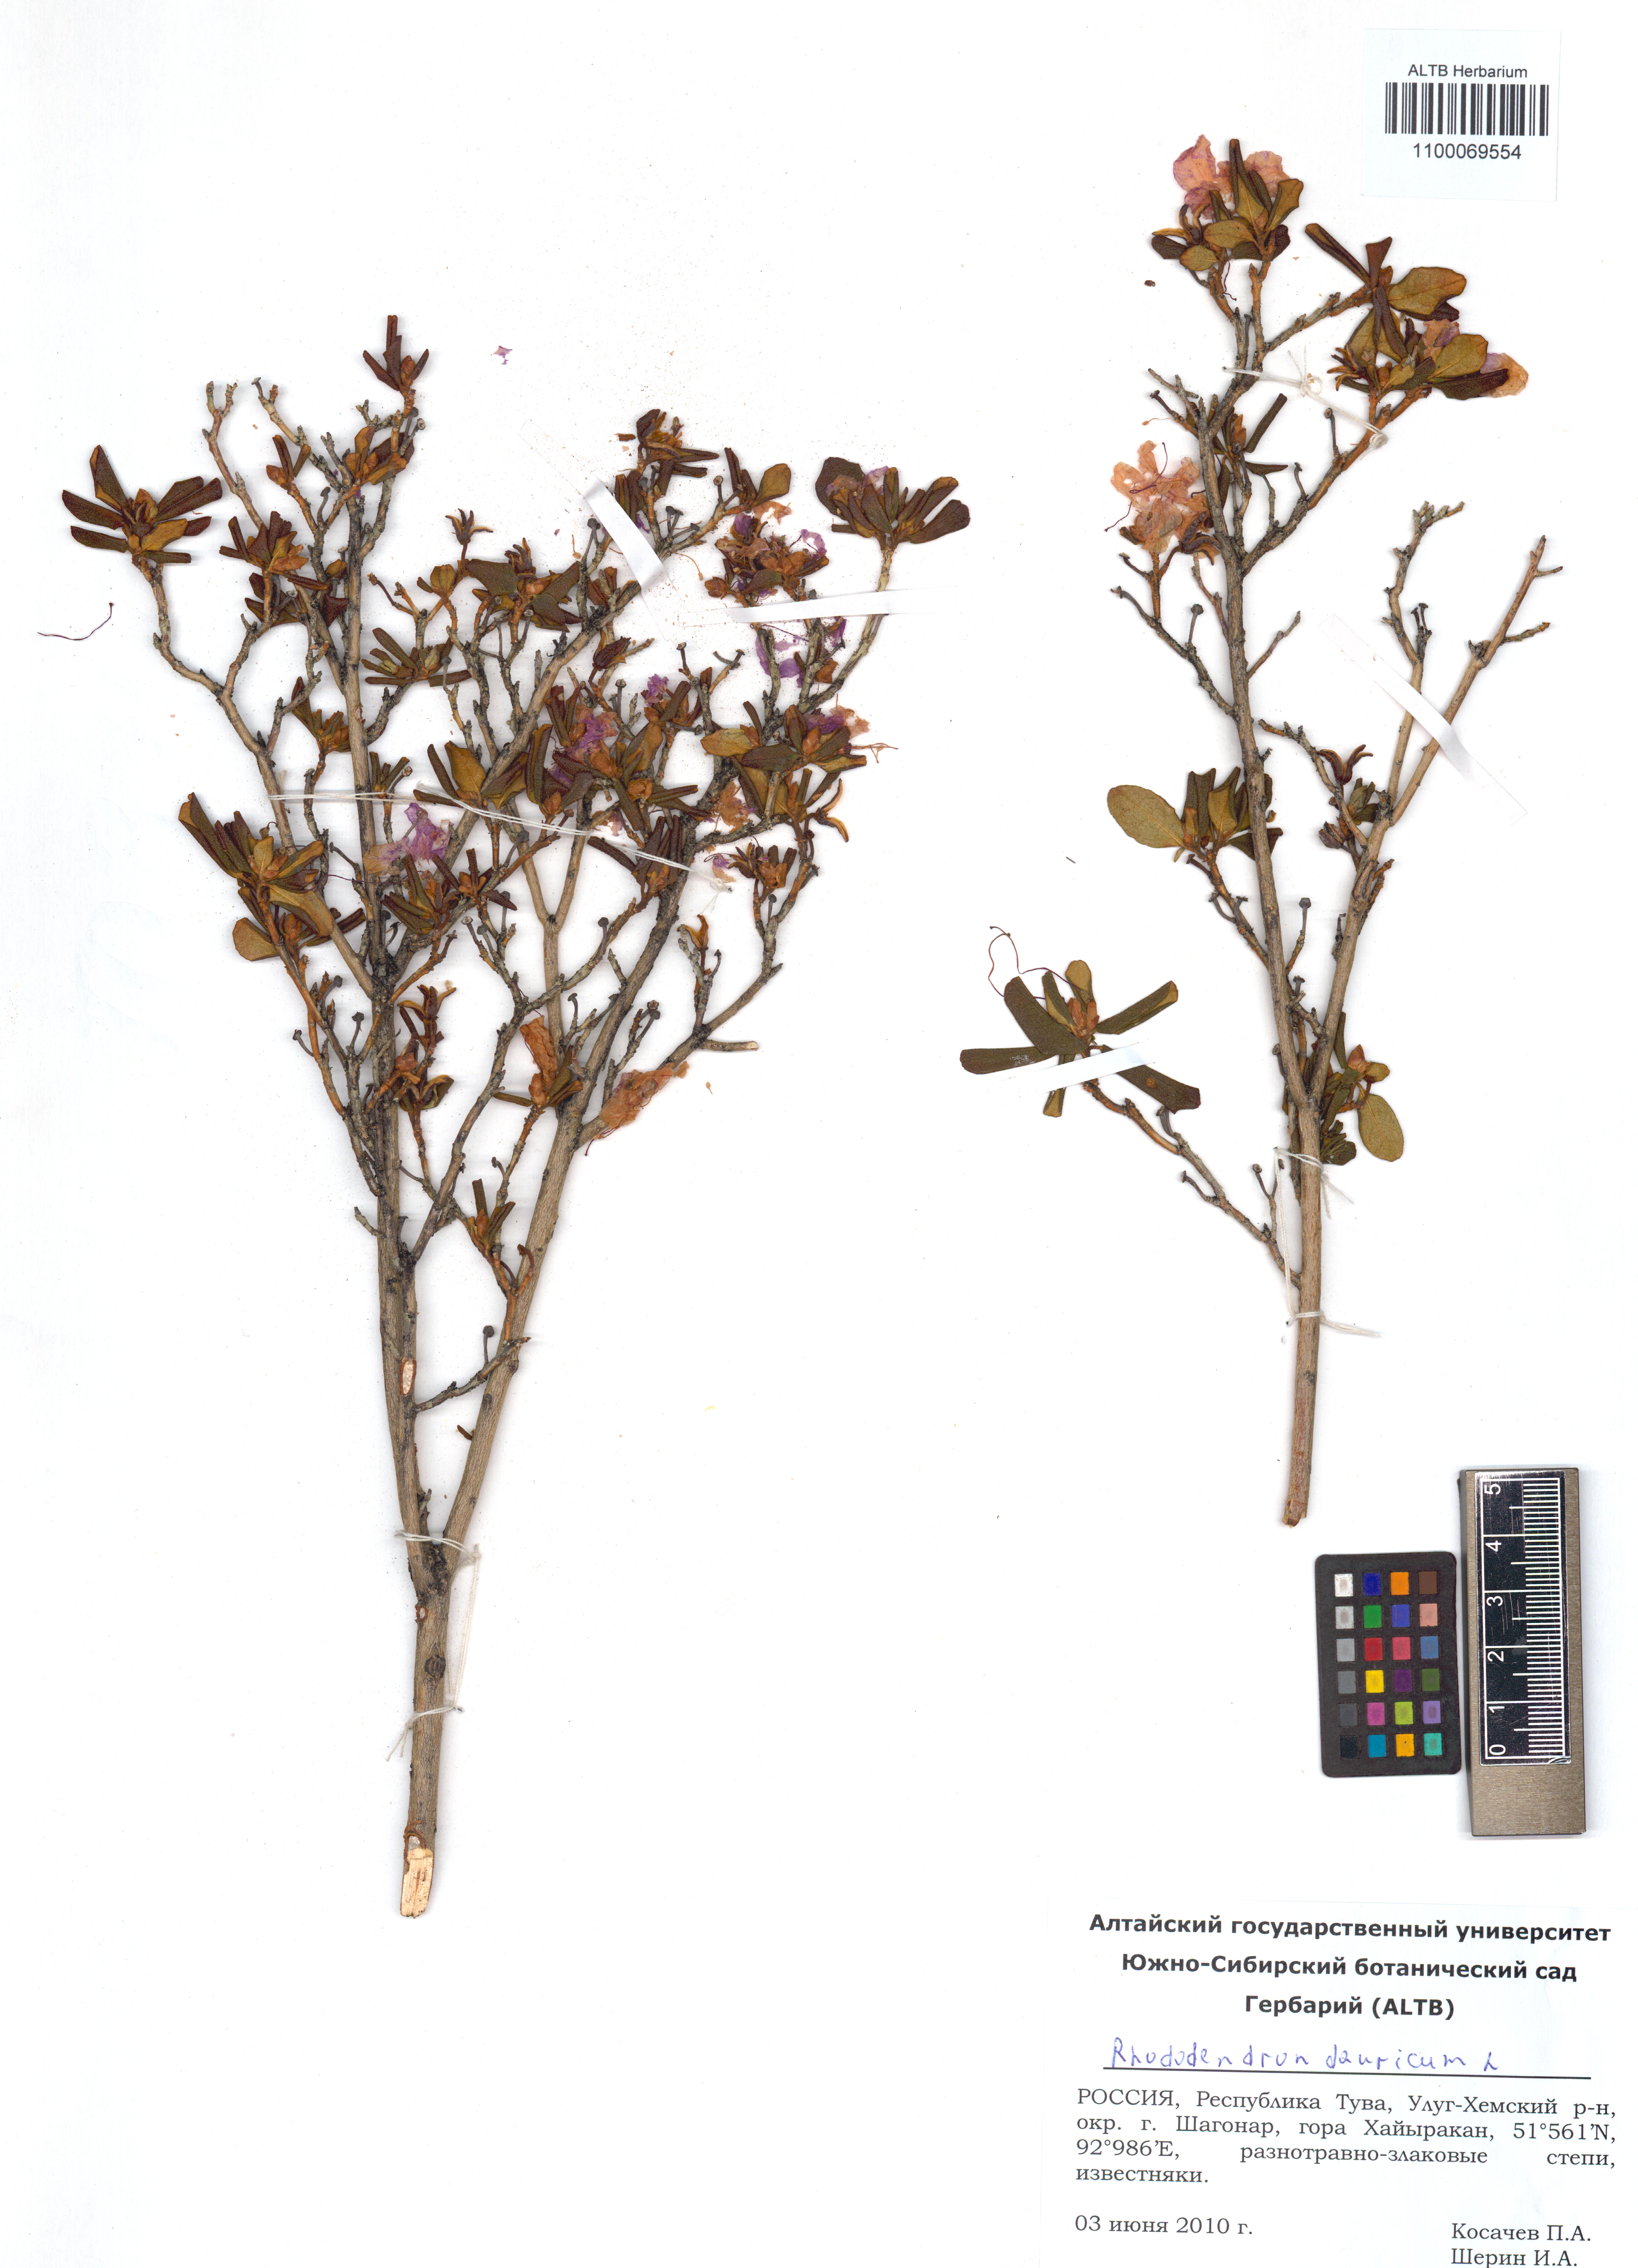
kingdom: Plantae
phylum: Tracheophyta
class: Magnoliopsida
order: Ericales
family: Ericaceae
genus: Rhododendron
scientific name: Rhododendron dauricum
